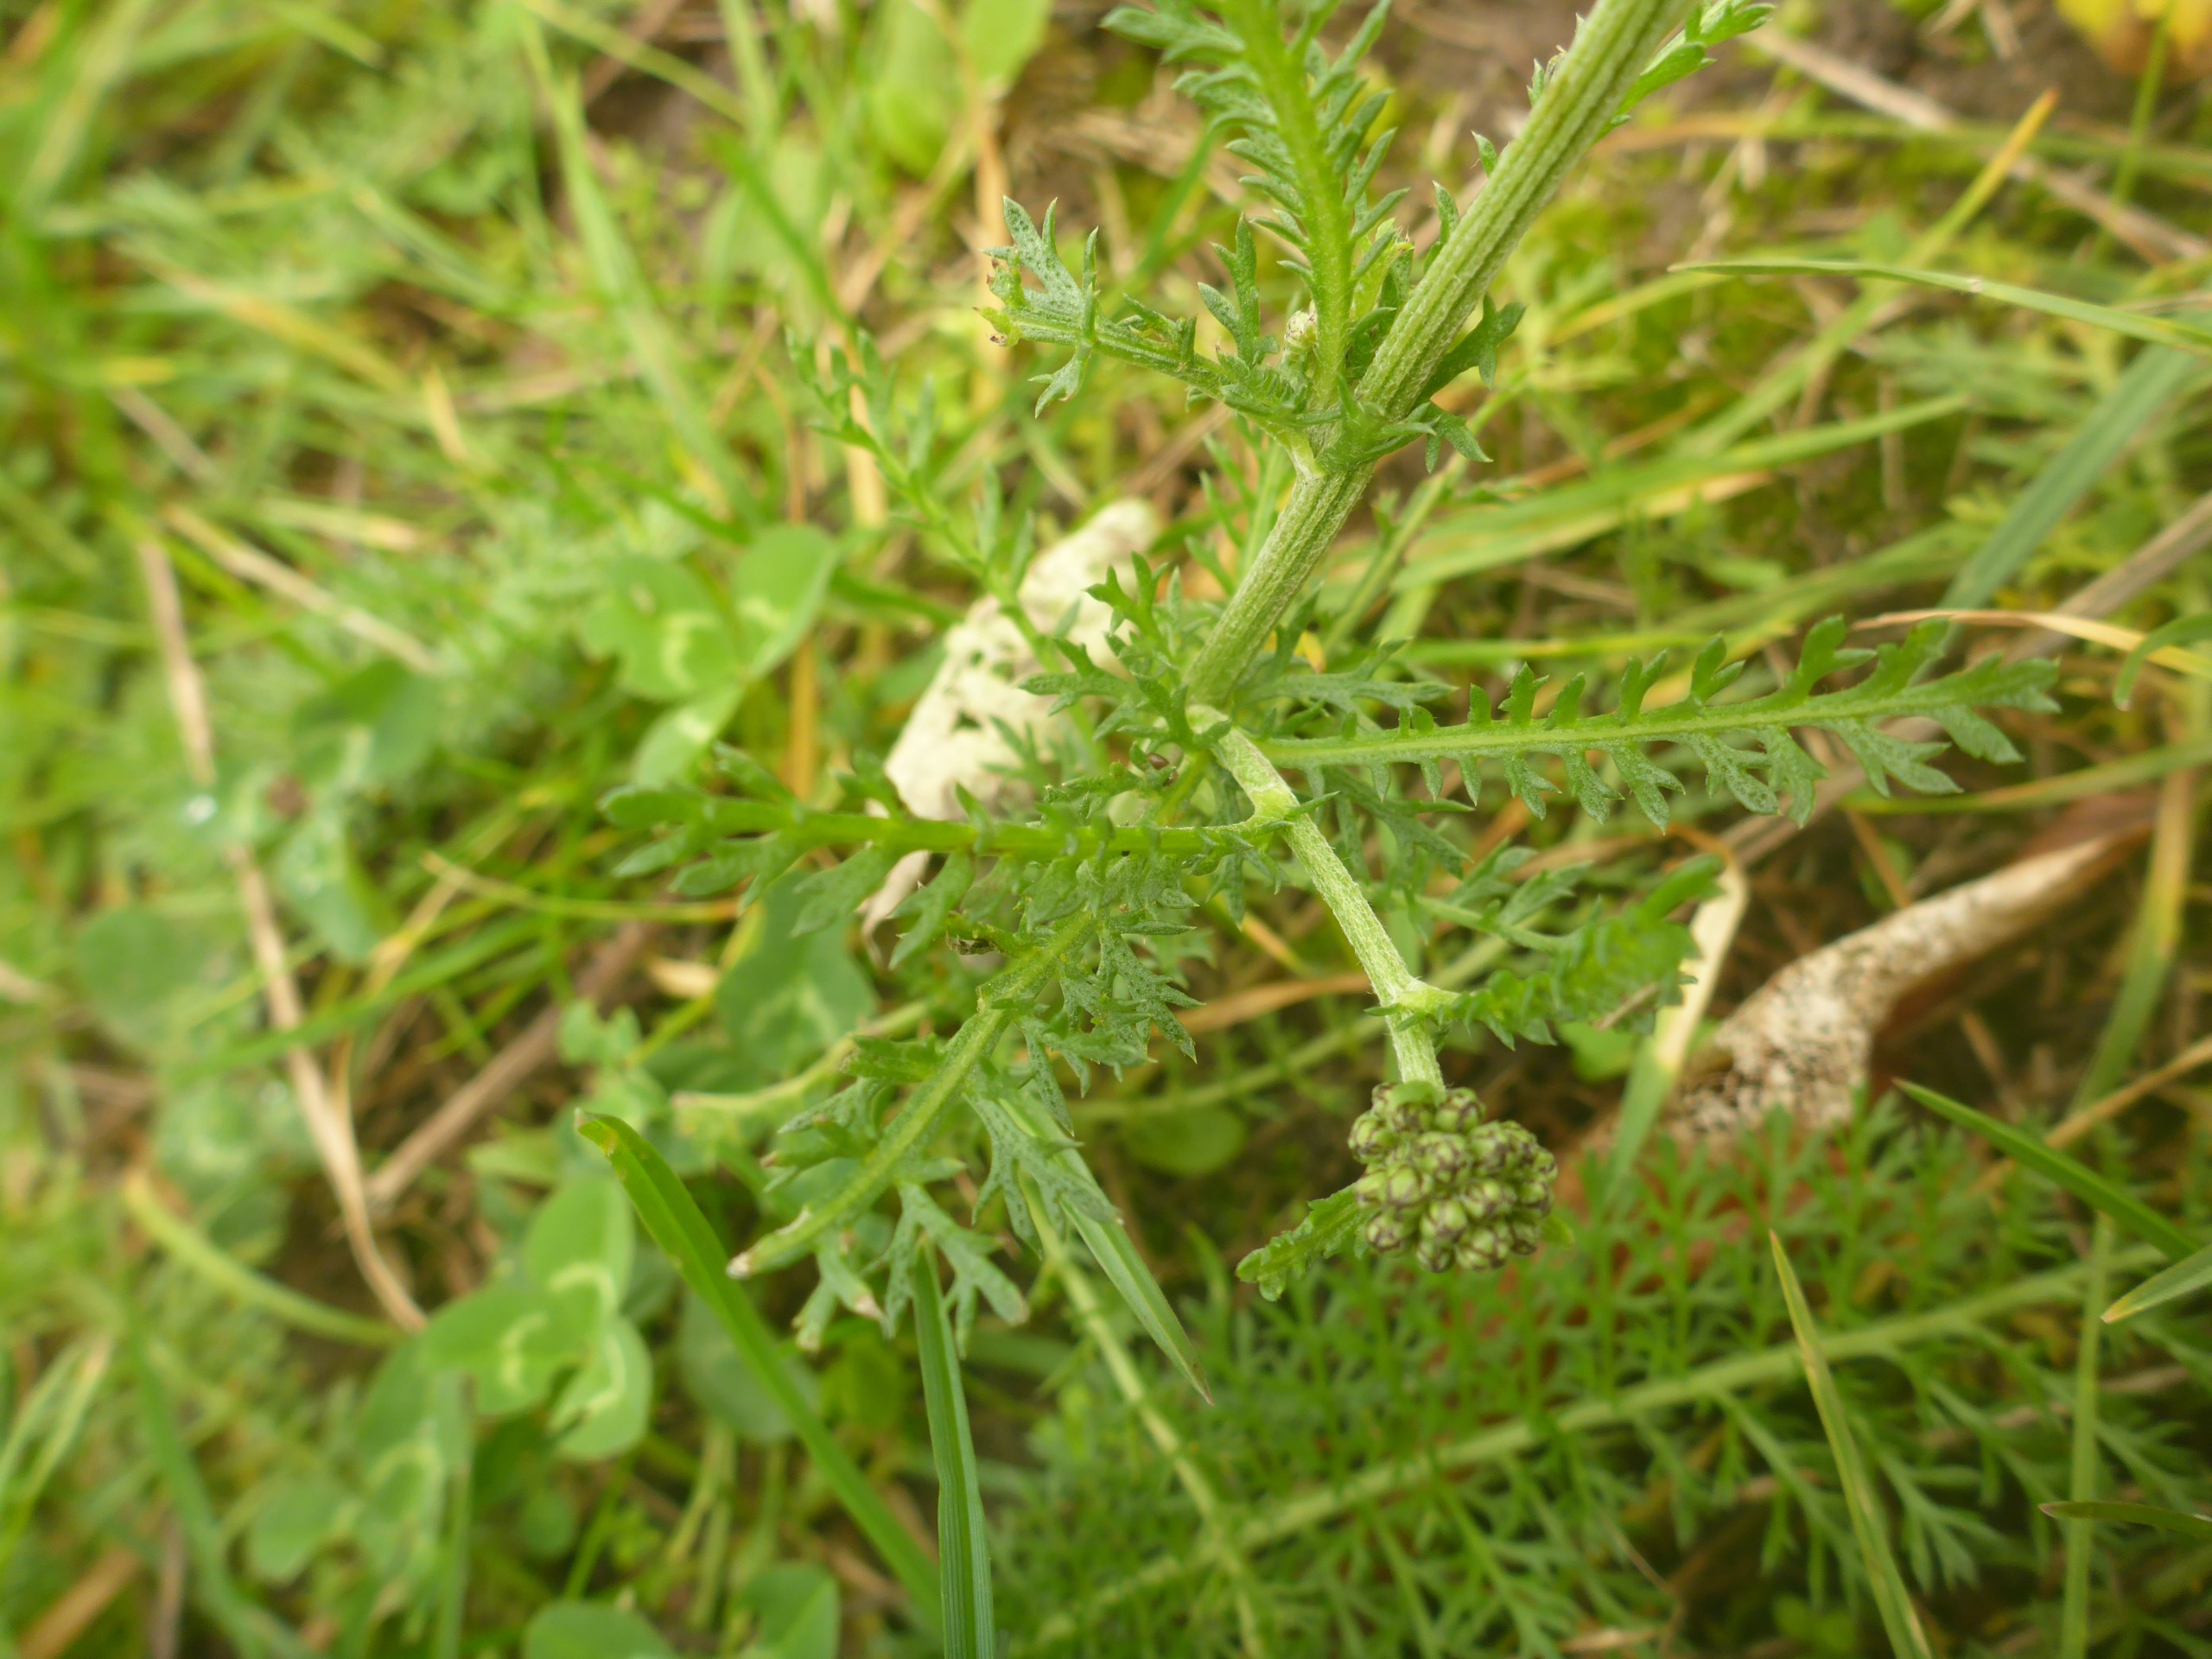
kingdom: Plantae
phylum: Tracheophyta
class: Magnoliopsida
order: Asterales
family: Asteraceae
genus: Achillea
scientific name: Achillea millefolium
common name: Almindelig røllike
